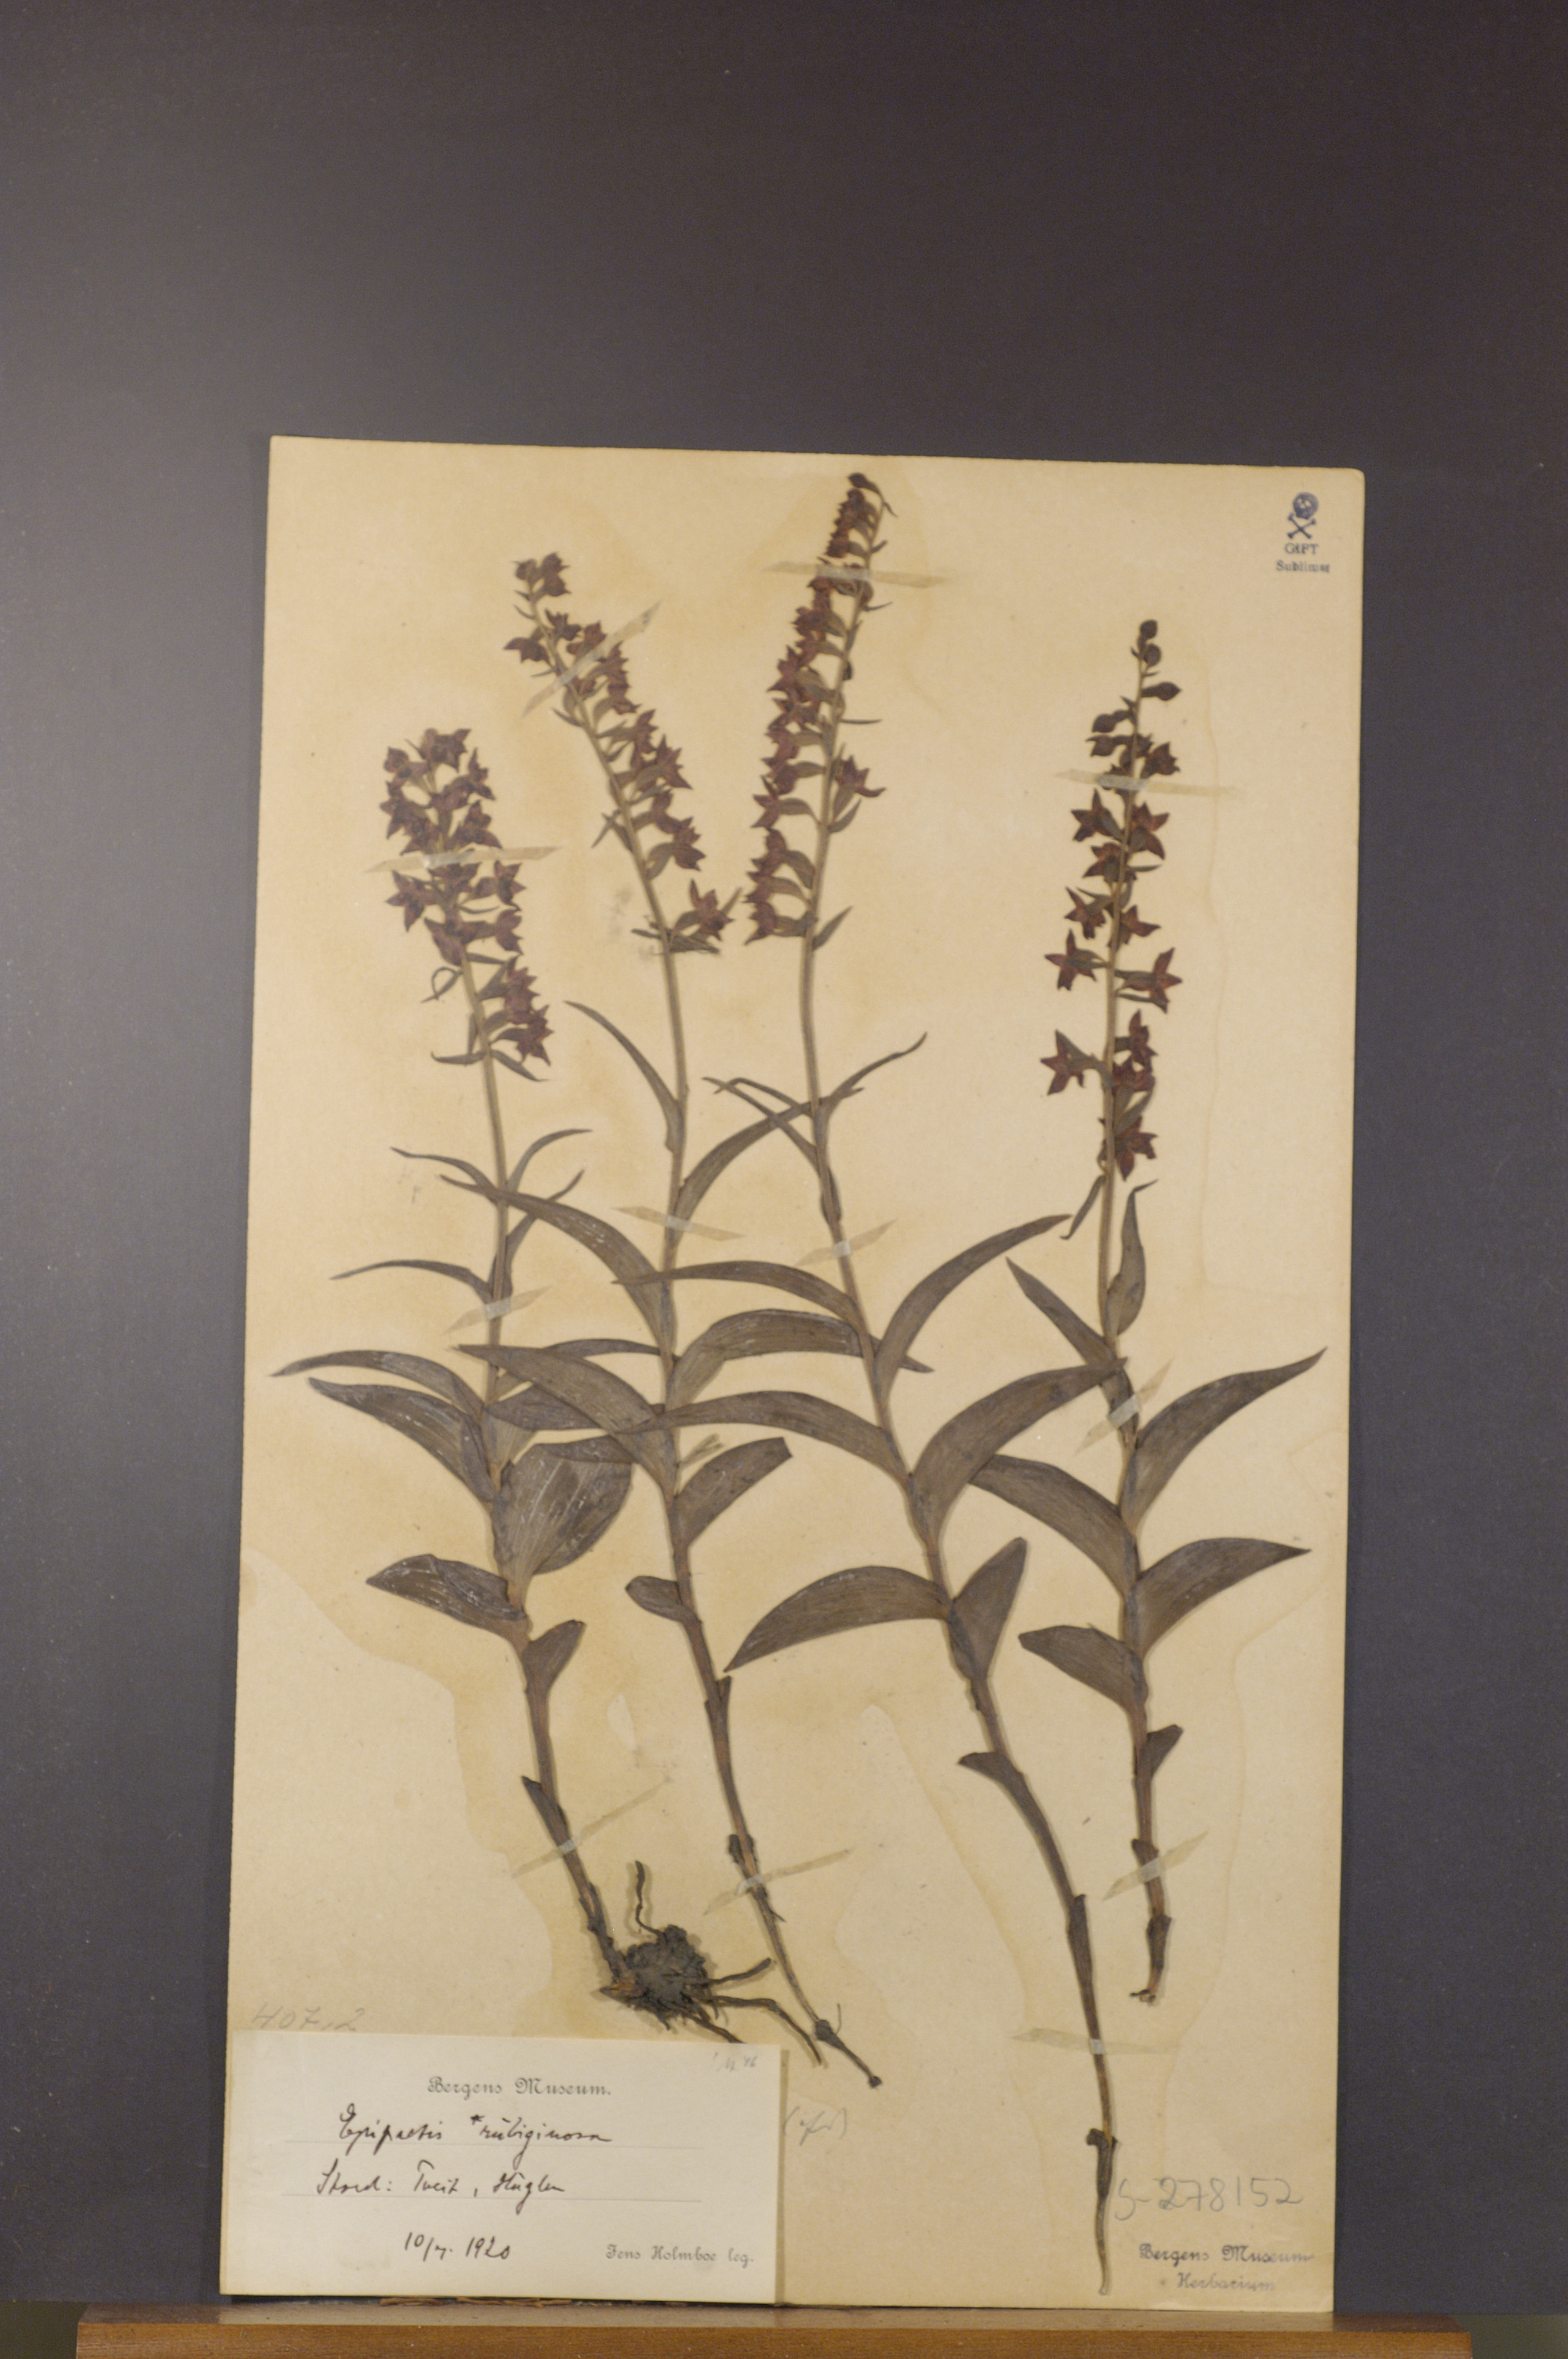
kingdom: Plantae
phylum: Tracheophyta
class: Liliopsida
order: Asparagales
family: Orchidaceae
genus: Epipactis
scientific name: Epipactis atrorubens
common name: Dark-red helleborine
